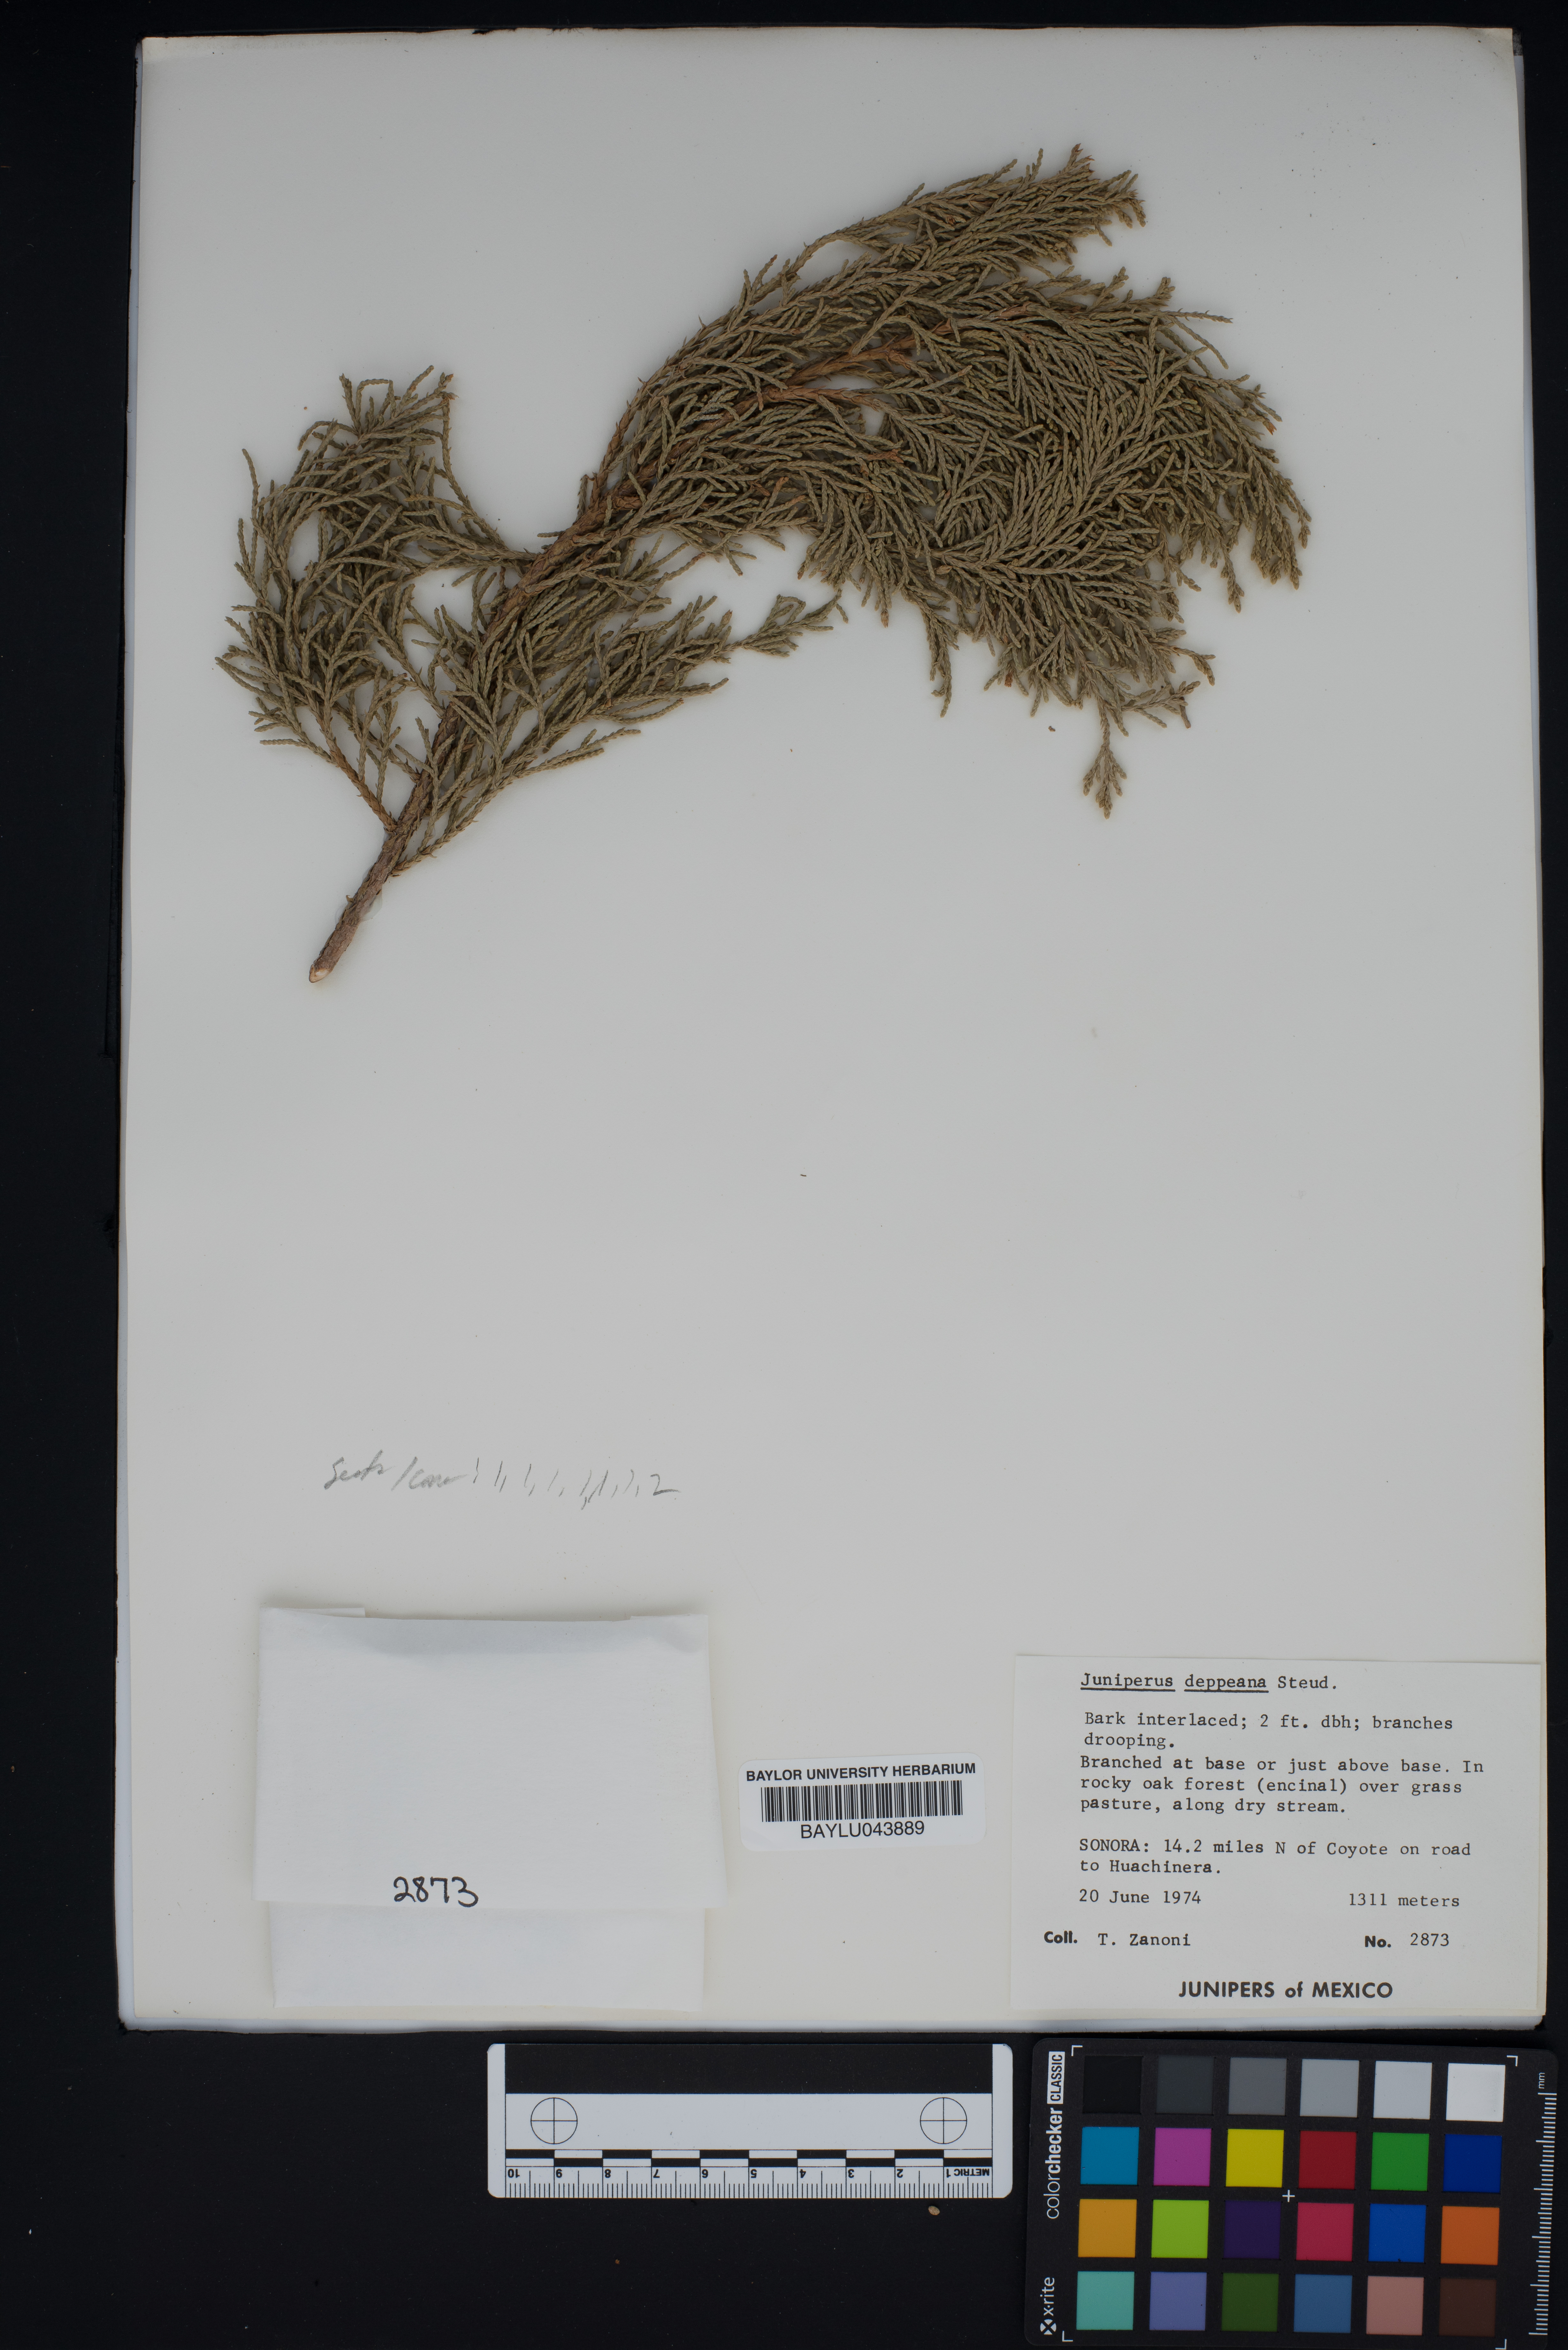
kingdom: Plantae
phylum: Tracheophyta
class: Pinopsida
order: Pinales
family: Cupressaceae
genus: Juniperus
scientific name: Juniperus deppeana
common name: Alligator juniper
